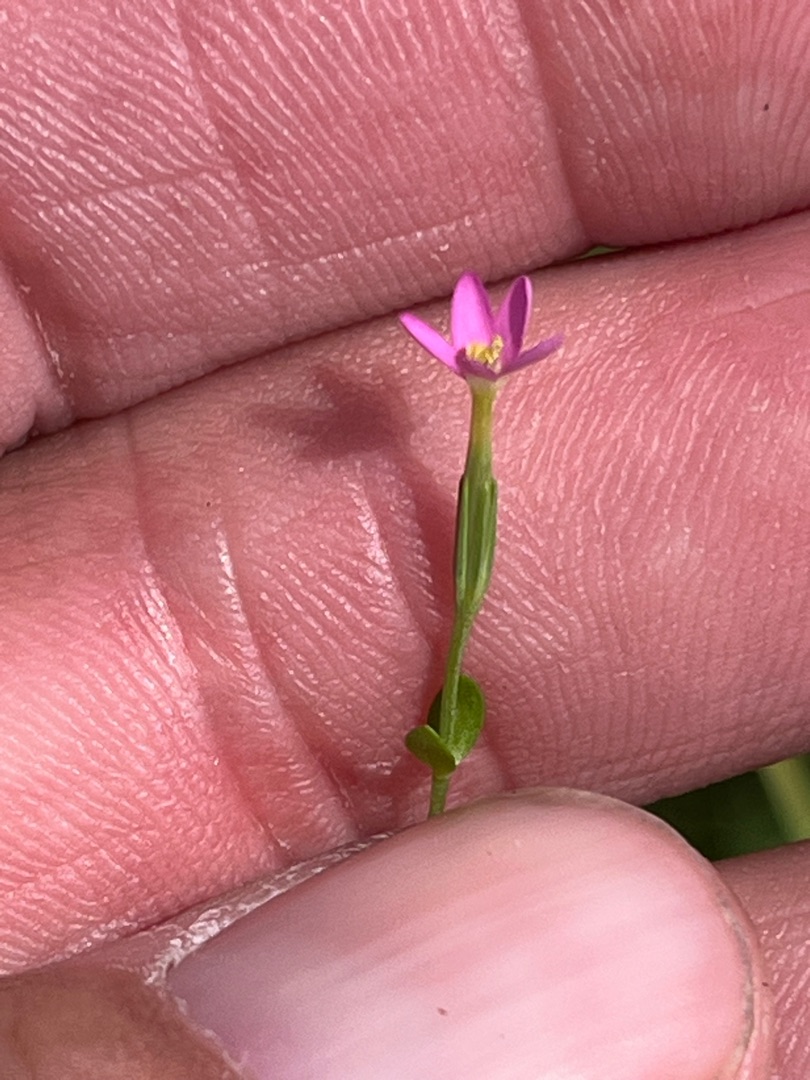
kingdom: Plantae
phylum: Tracheophyta
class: Magnoliopsida
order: Gentianales
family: Gentianaceae
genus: Centaurium
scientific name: Centaurium pulchellum
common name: Liden tusindgylden
